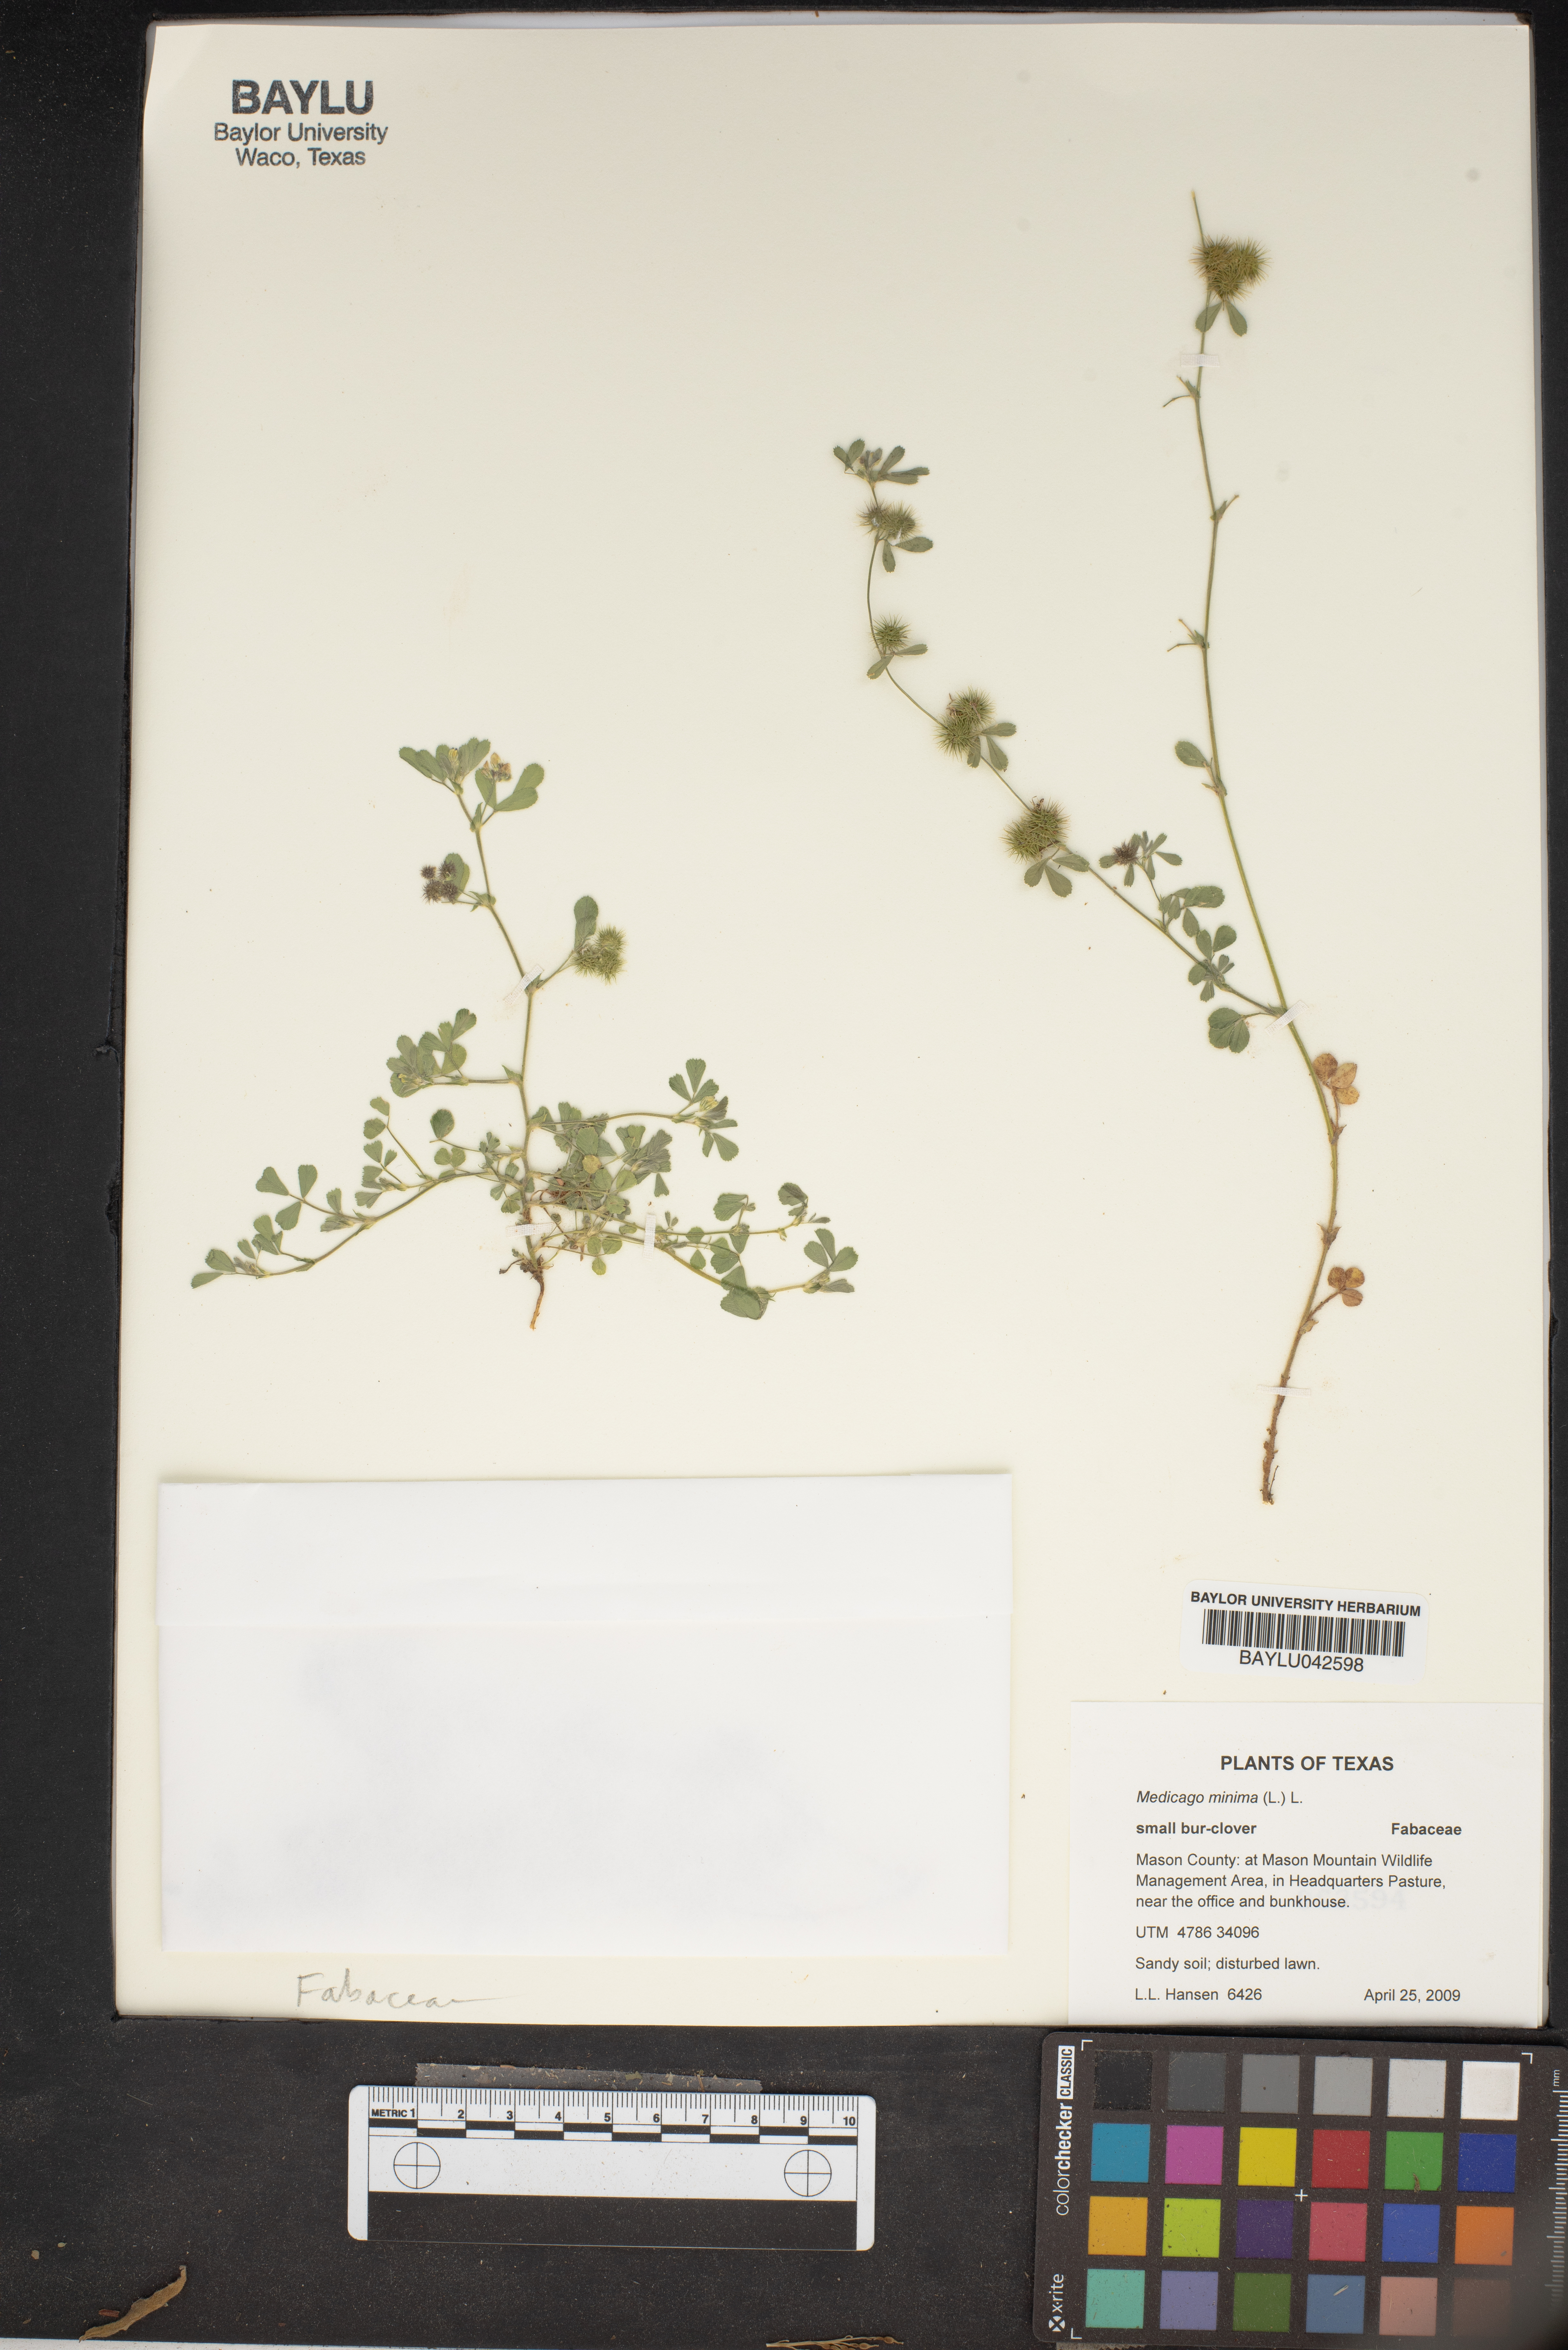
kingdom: Plantae
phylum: Tracheophyta
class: Magnoliopsida
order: Fabales
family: Fabaceae
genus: Medicago
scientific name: Medicago minima
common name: Little bur-clover
